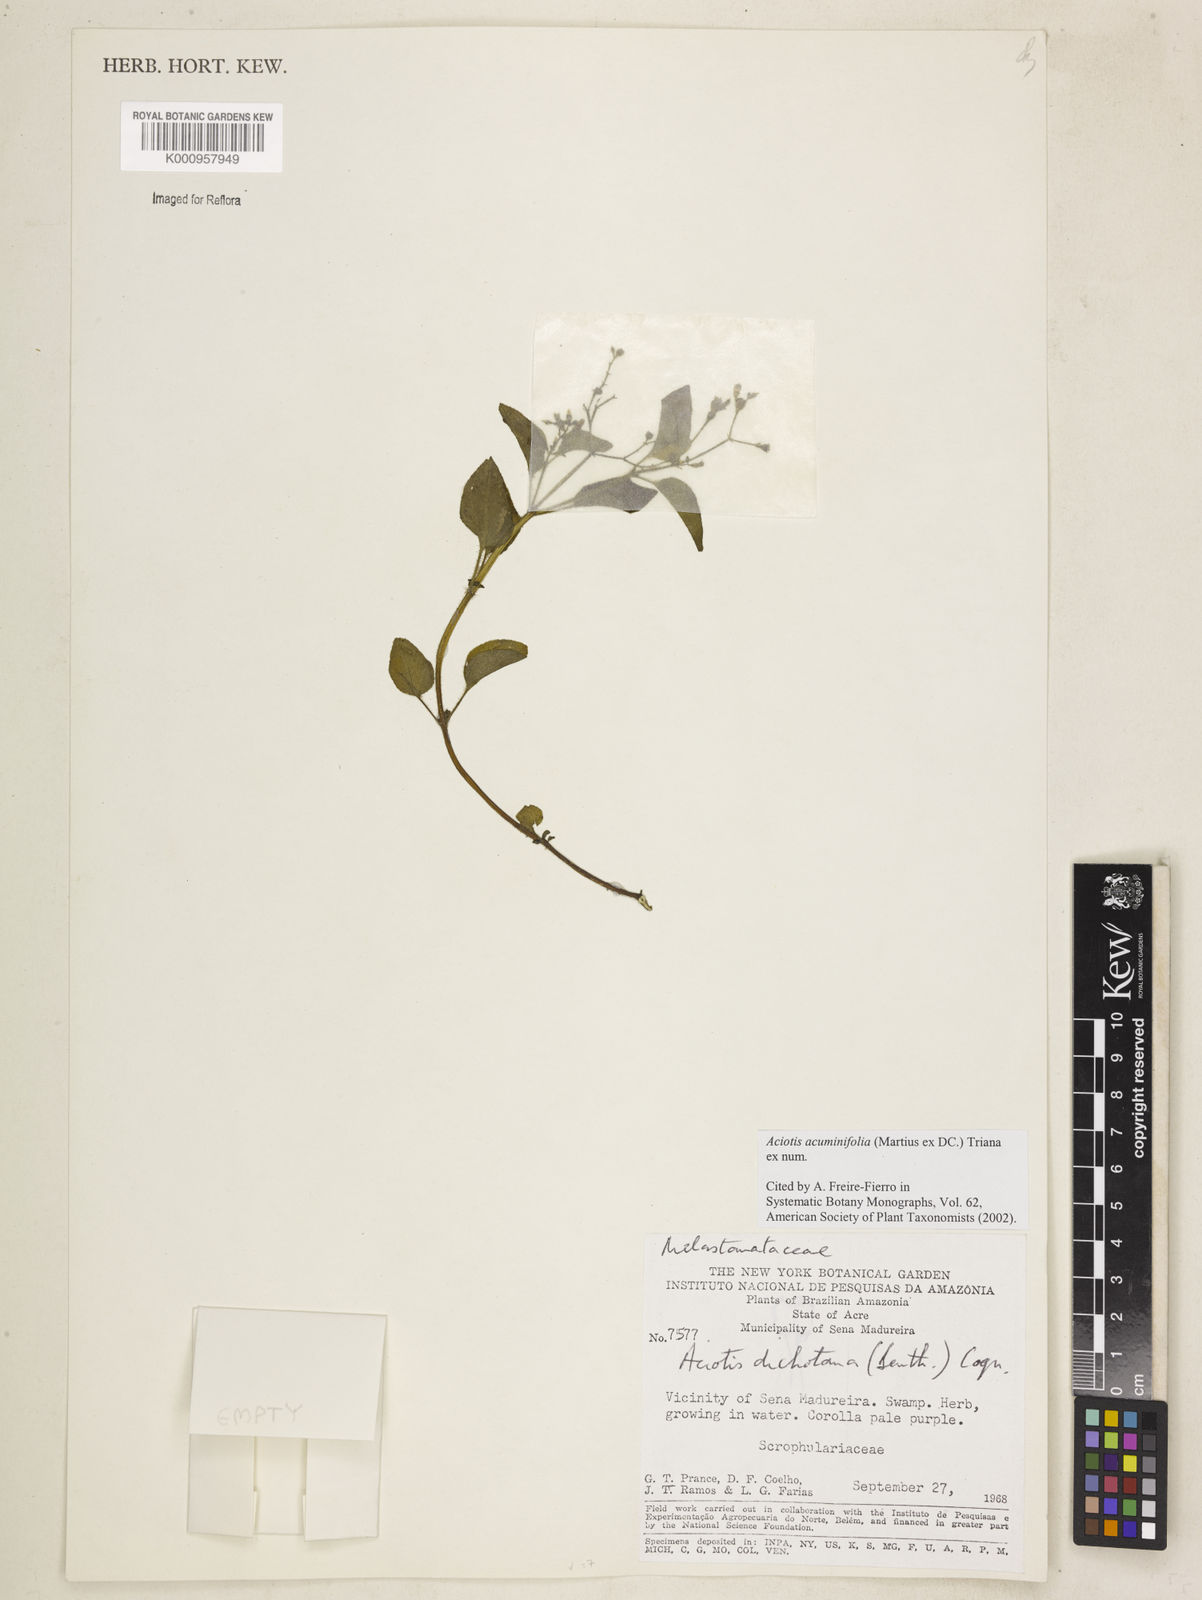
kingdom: Plantae
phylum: Tracheophyta
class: Magnoliopsida
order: Myrtales
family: Melastomataceae
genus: Aciotis
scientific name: Aciotis acuminifolia
